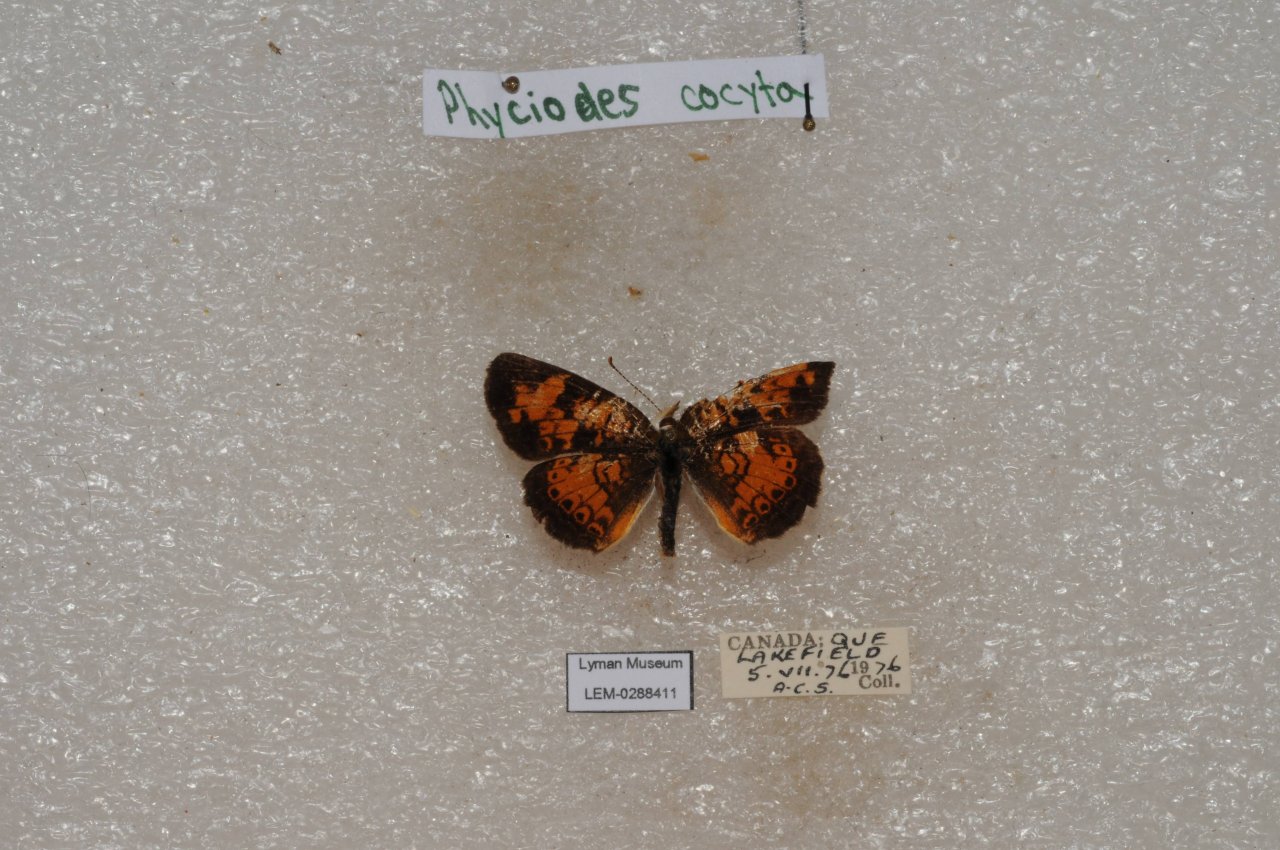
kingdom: Animalia
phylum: Arthropoda
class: Insecta
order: Lepidoptera
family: Nymphalidae
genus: Phyciodes
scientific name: Phyciodes tharos
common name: Northern Crescent
